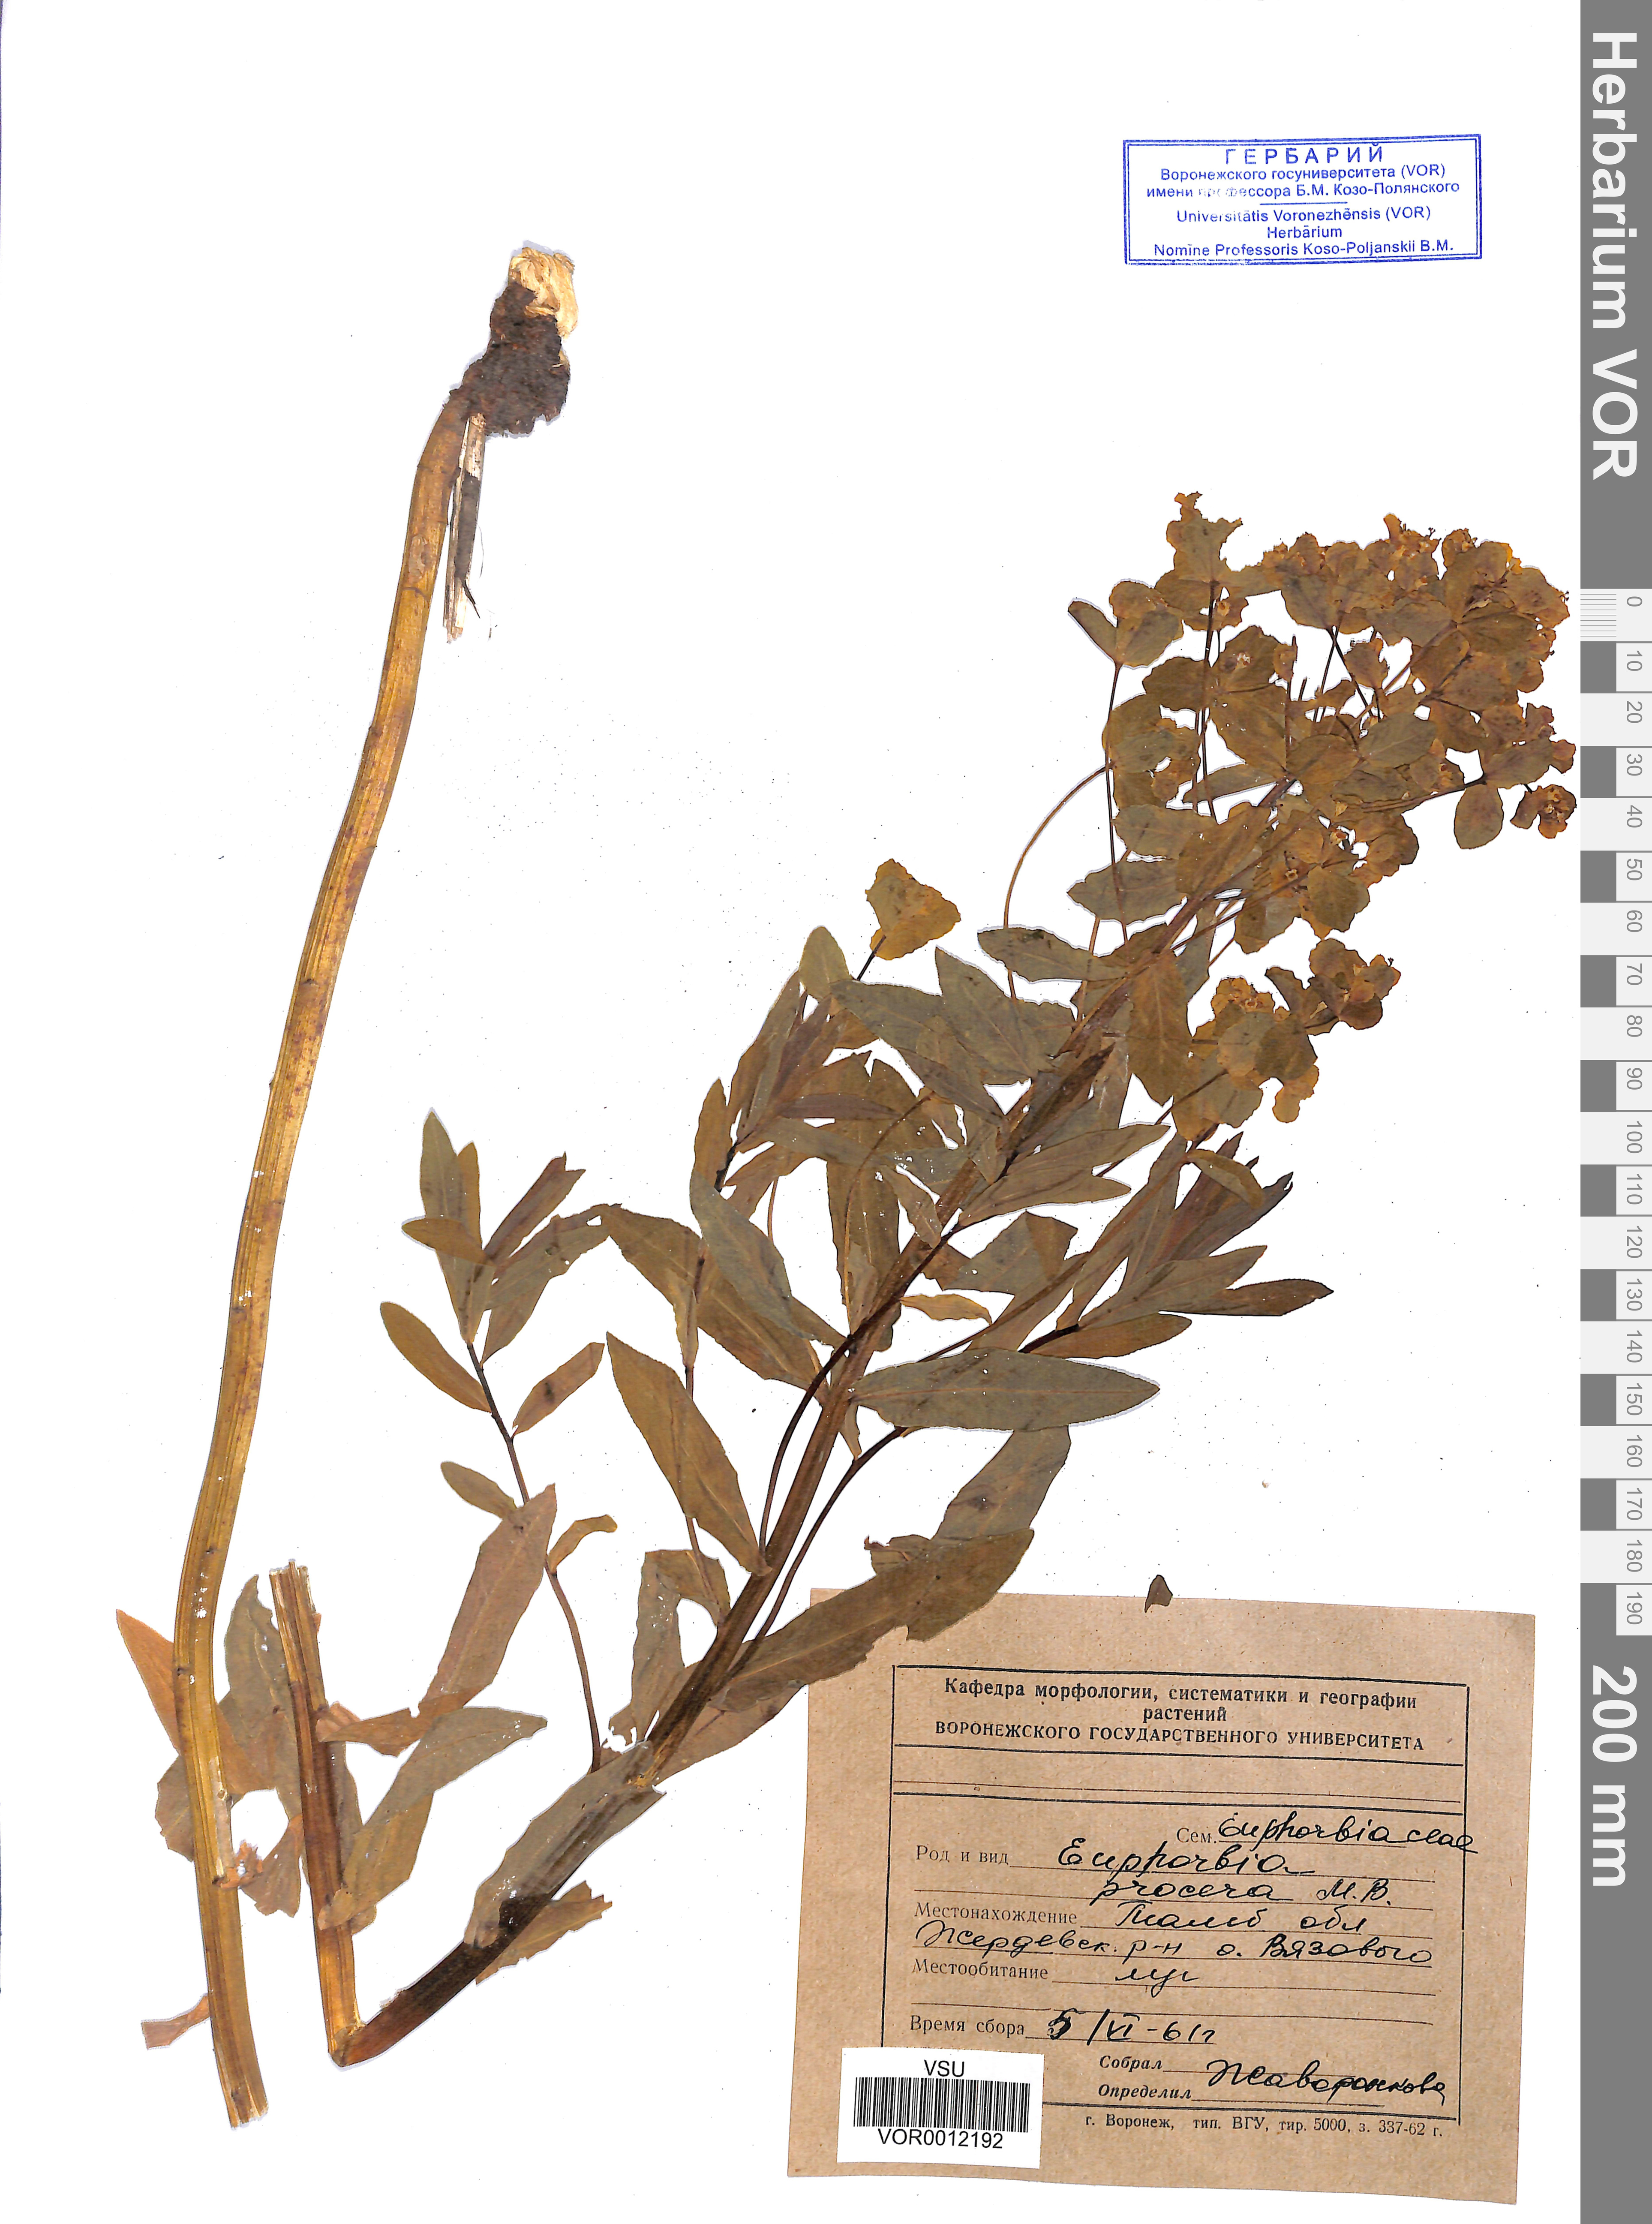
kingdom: Plantae
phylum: Tracheophyta
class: Magnoliopsida
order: Malpighiales
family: Euphorbiaceae
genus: Euphorbia
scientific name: Euphorbia procera
